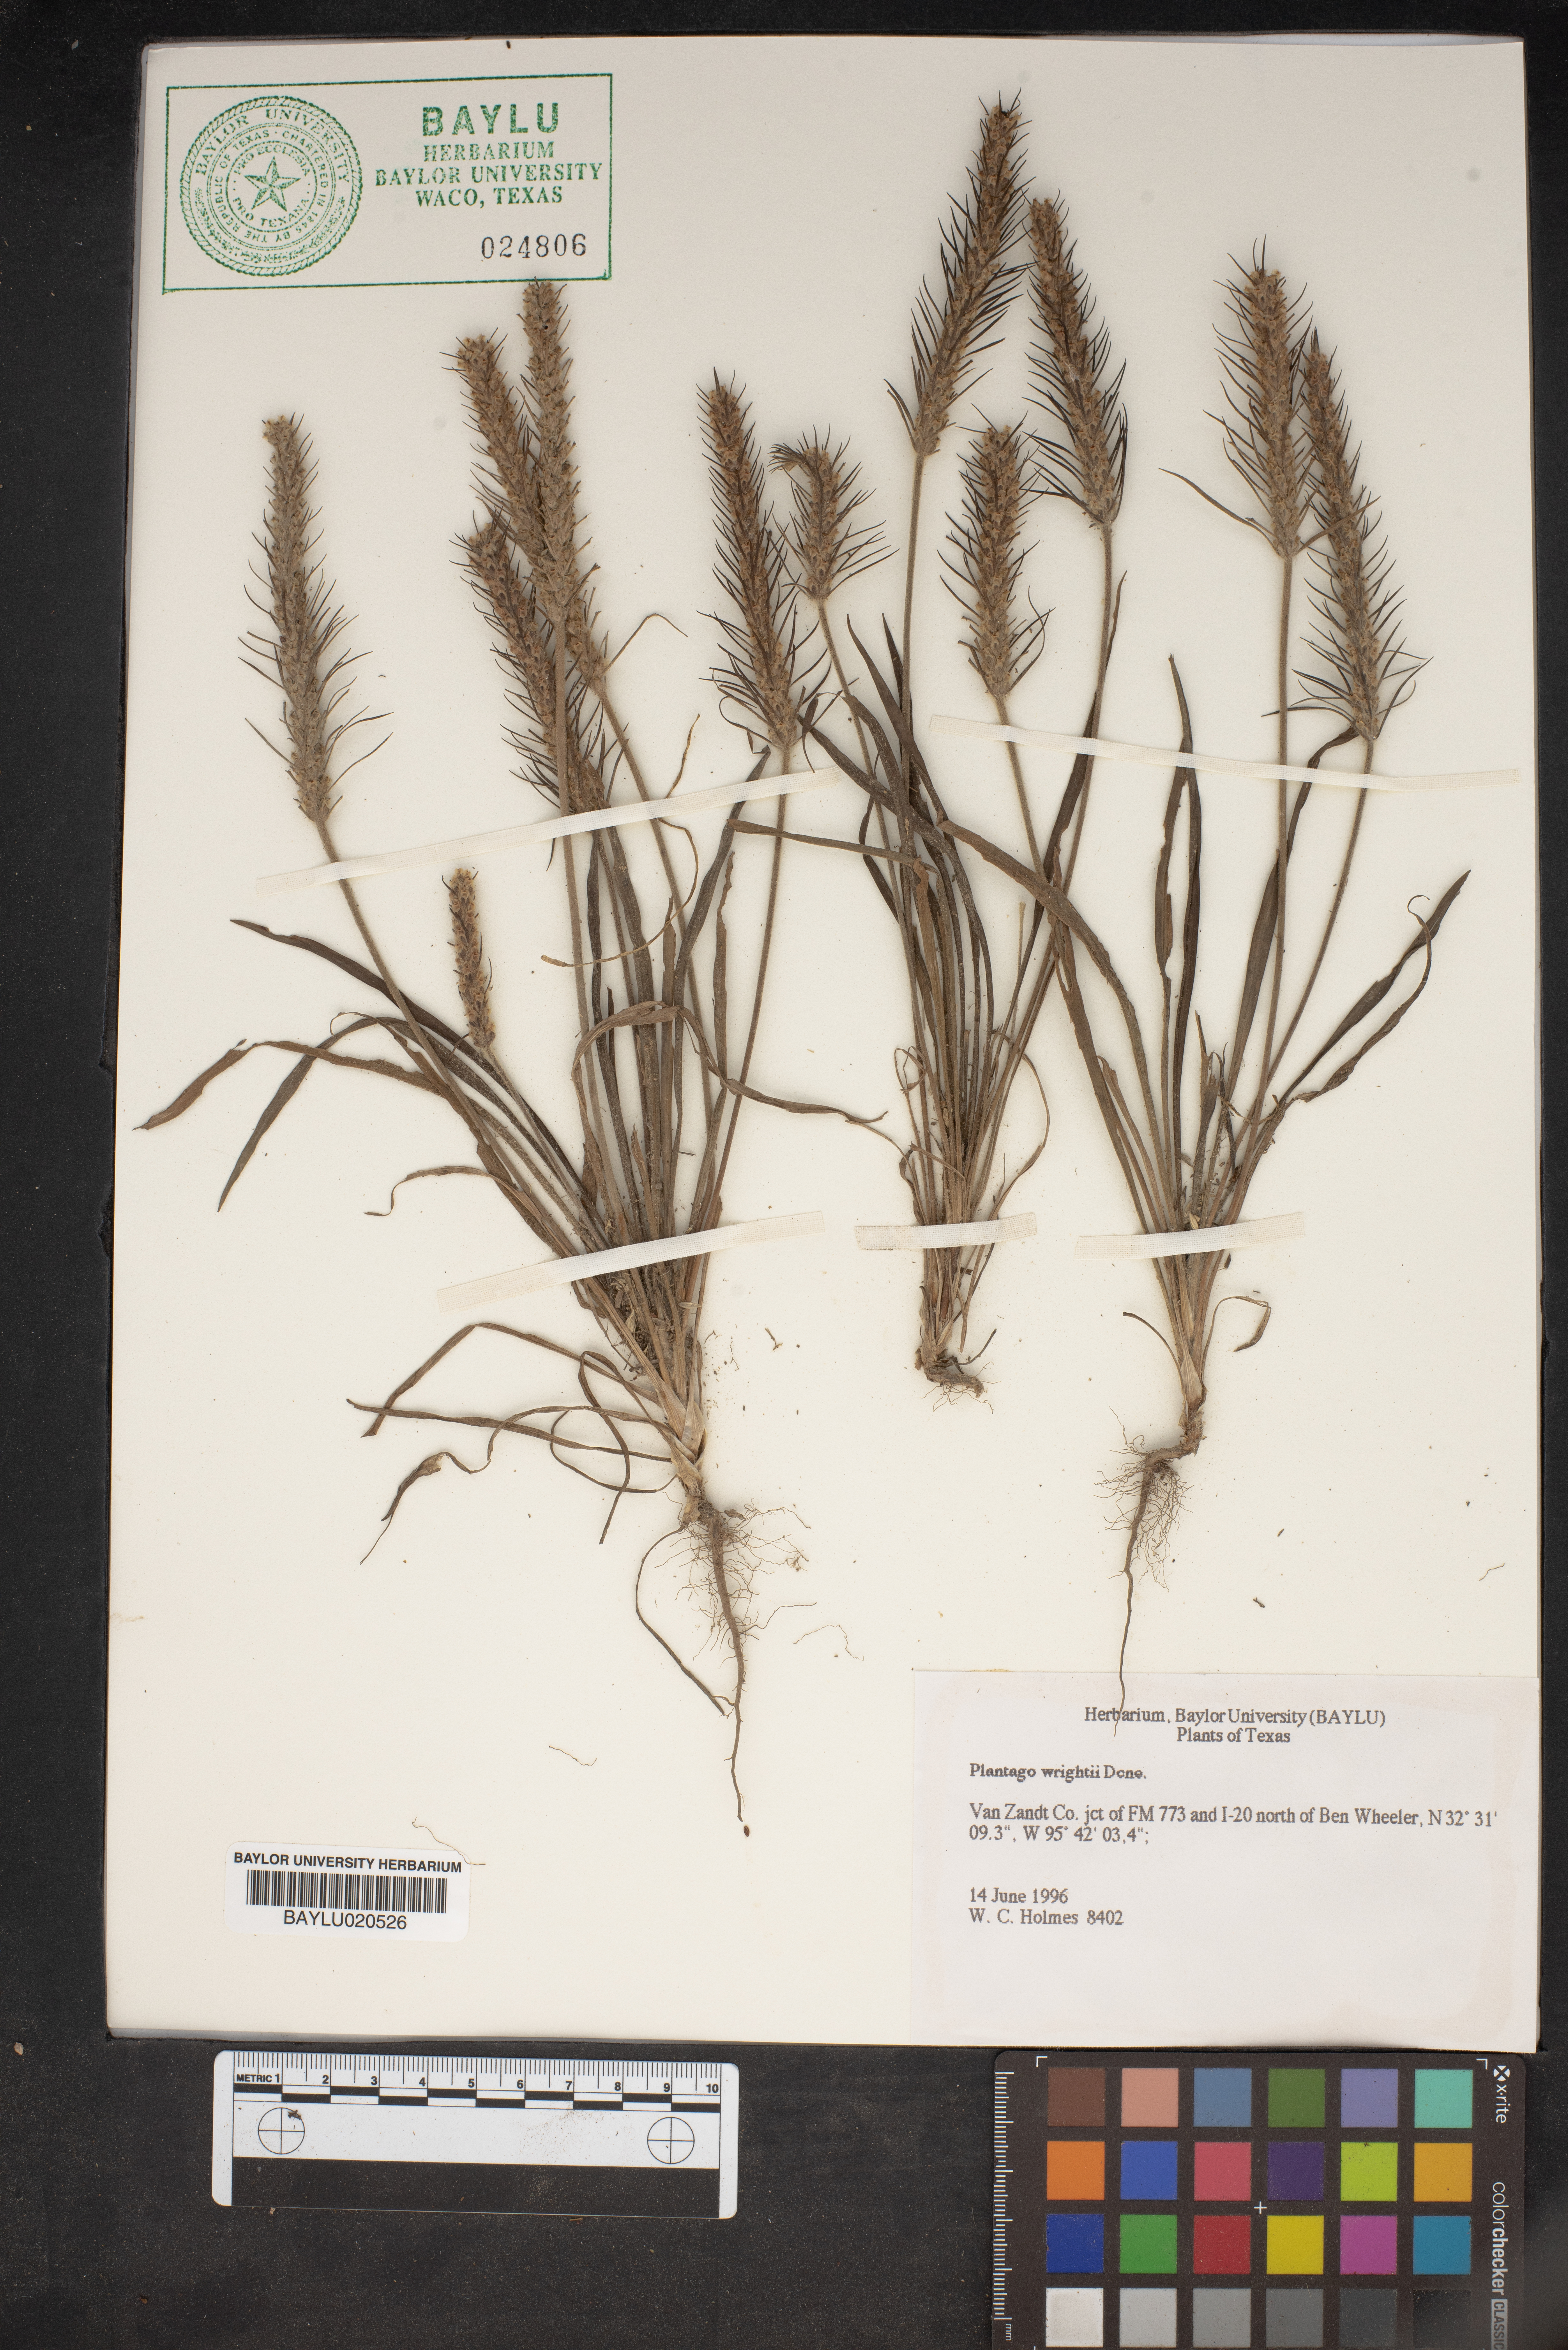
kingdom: Plantae
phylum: Tracheophyta
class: Magnoliopsida
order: Lamiales
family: Plantaginaceae
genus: Plantago
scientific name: Plantago wrightiana
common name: Wright's plantain
